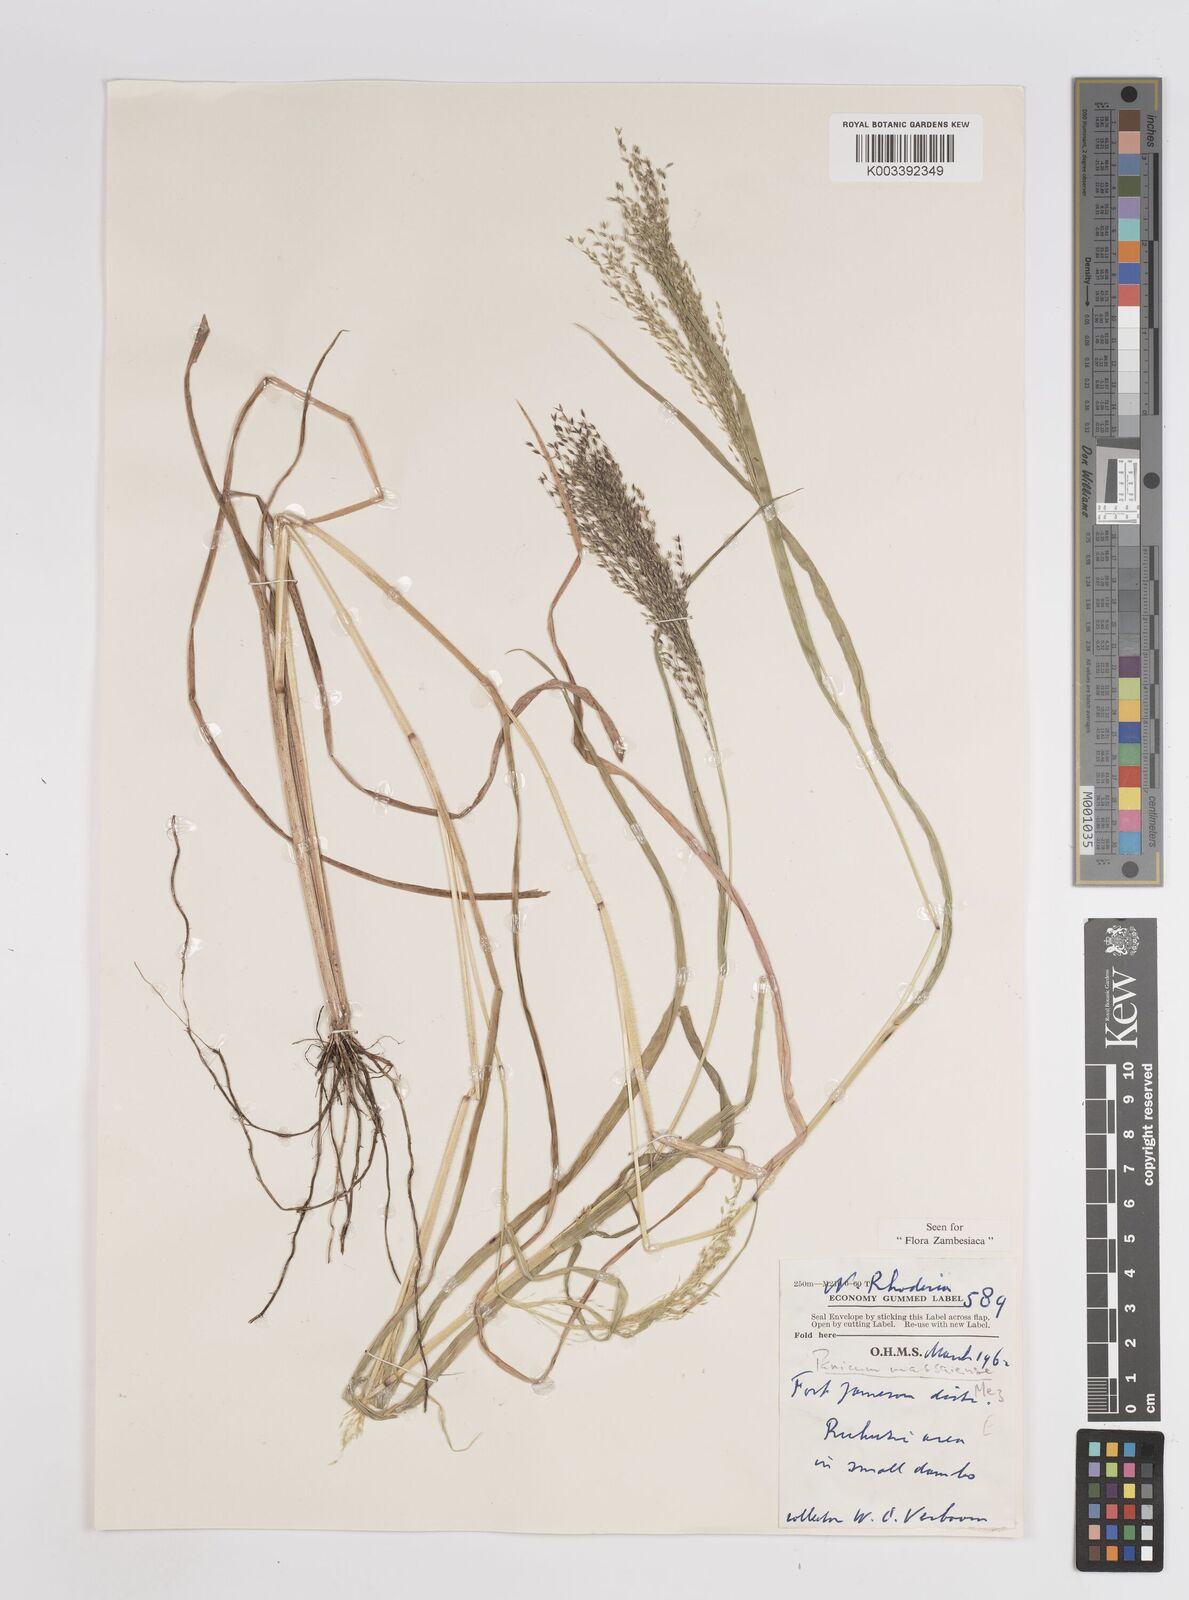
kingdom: Plantae
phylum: Tracheophyta
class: Liliopsida
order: Poales
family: Poaceae
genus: Panicum
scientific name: Panicum massaiense
